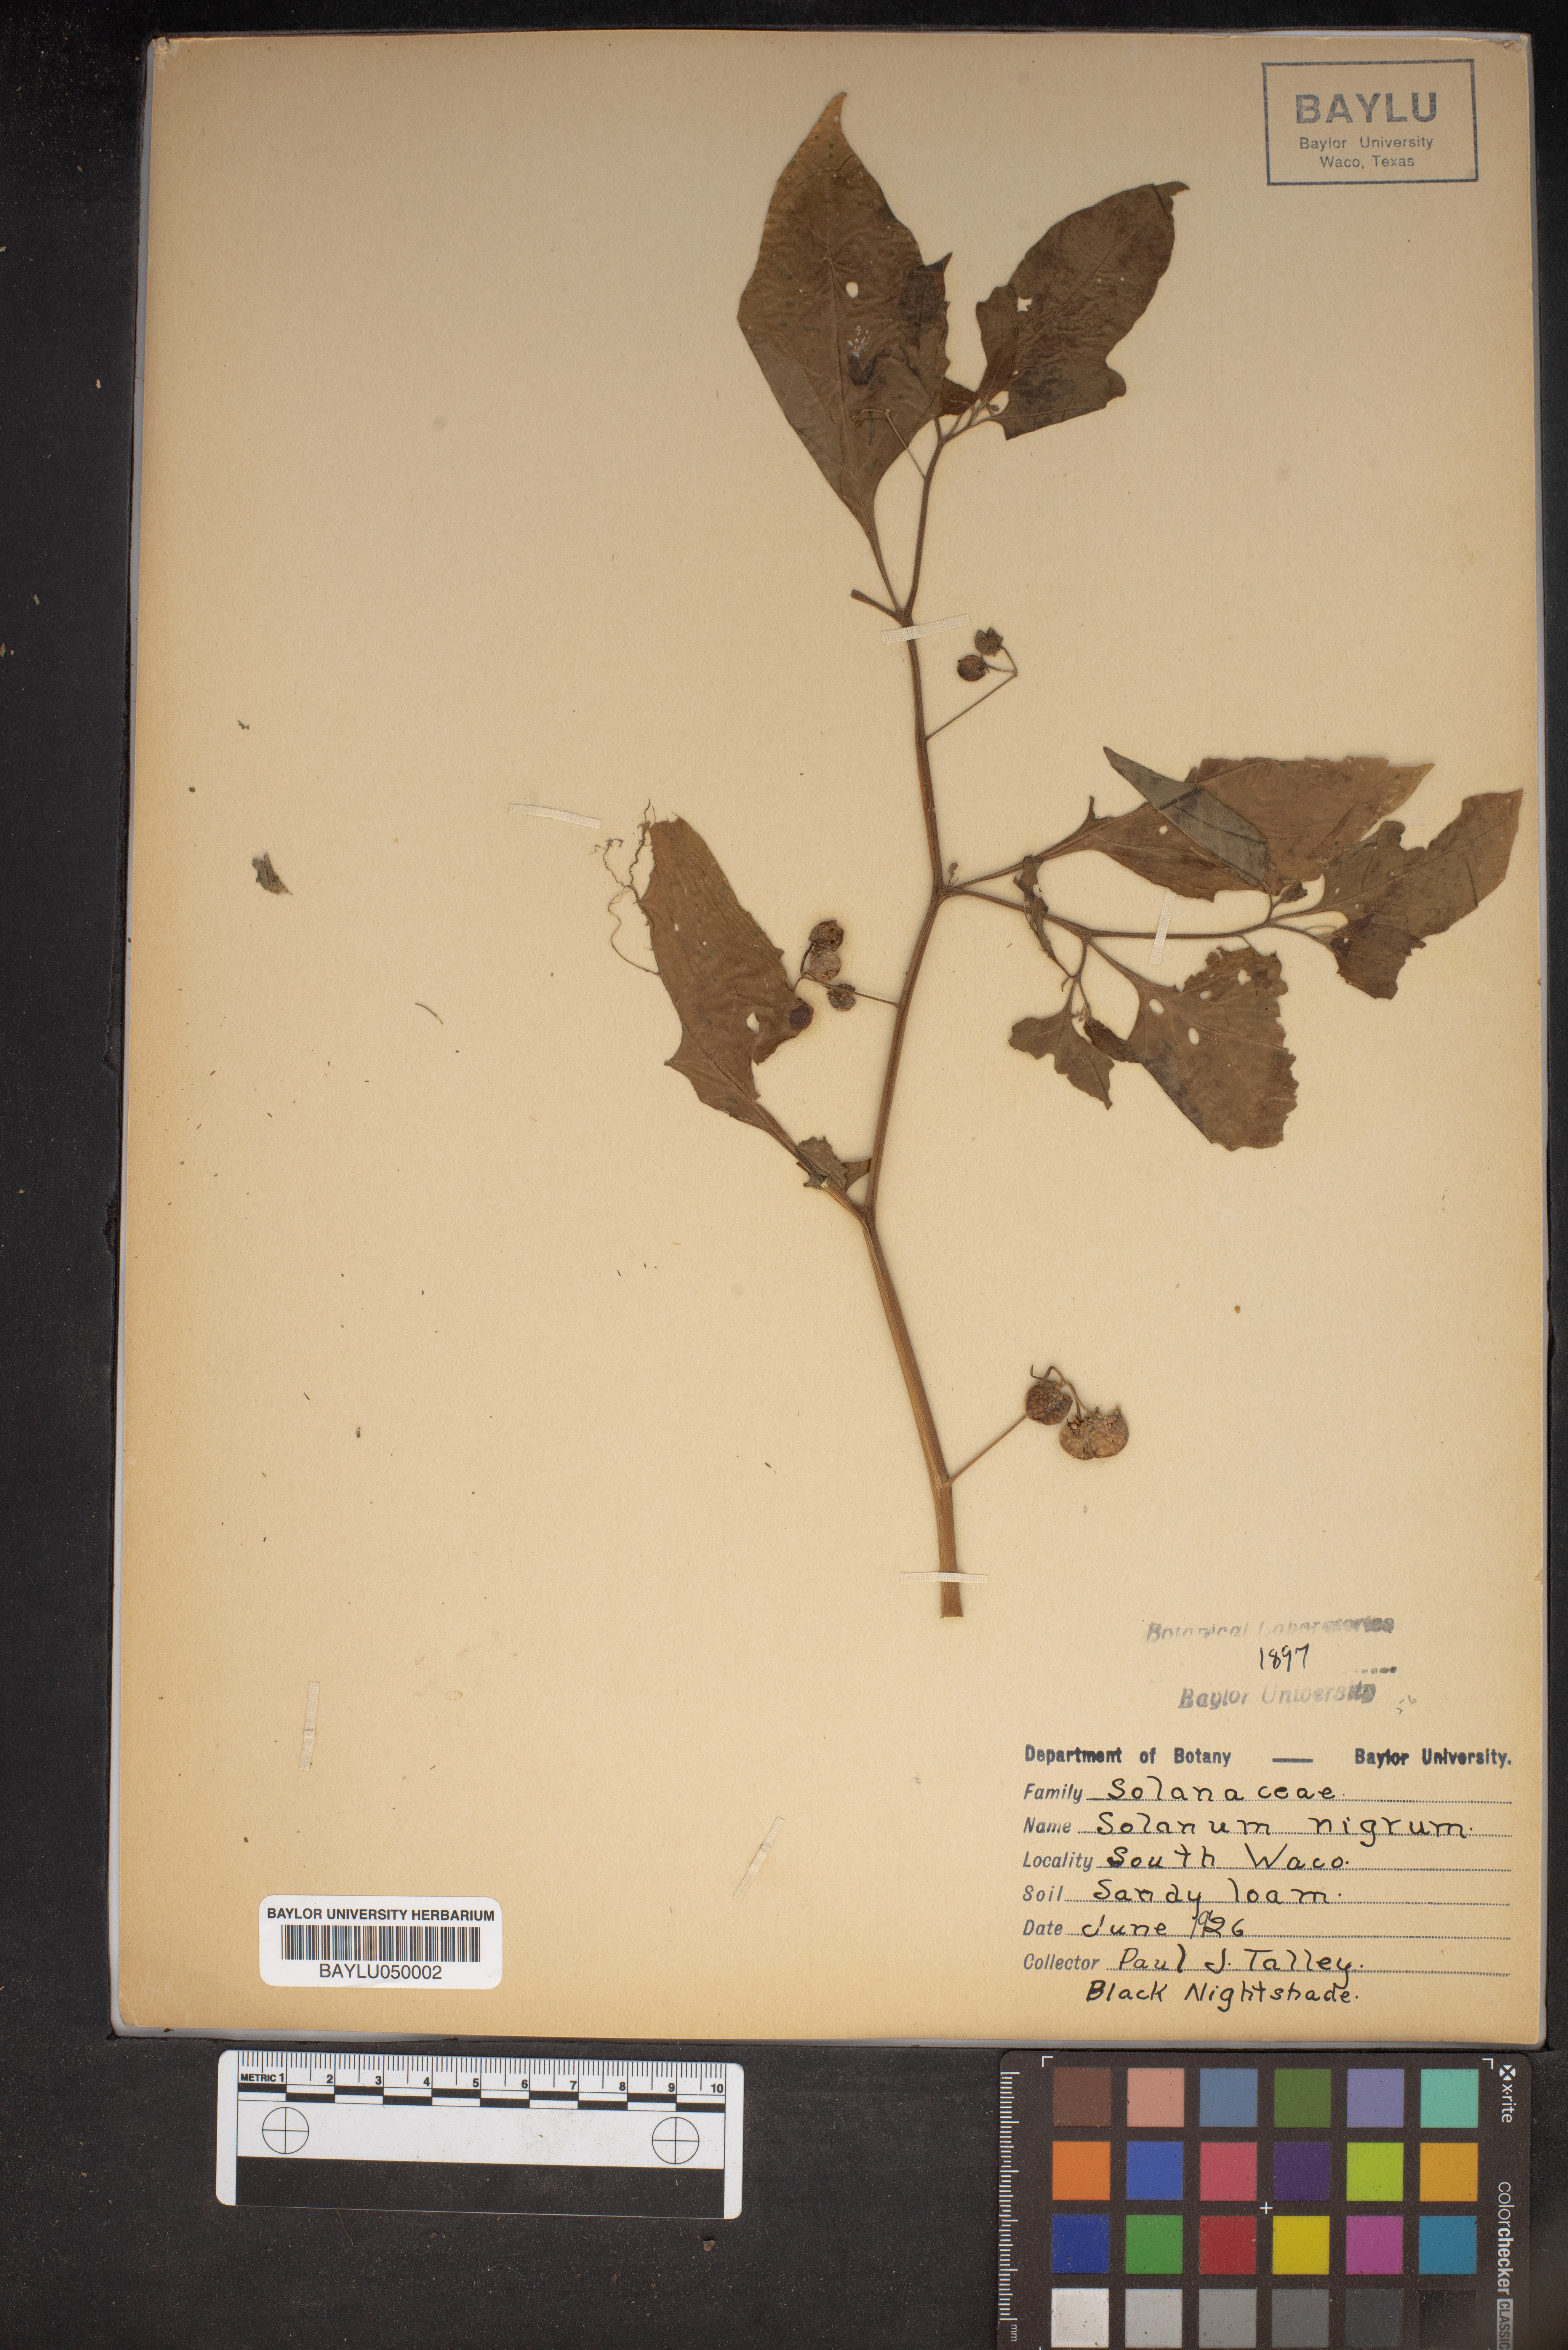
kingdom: Plantae
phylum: Tracheophyta
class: Magnoliopsida
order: Solanales
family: Solanaceae
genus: Solanum
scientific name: Solanum nigrum
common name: Black nightshade
